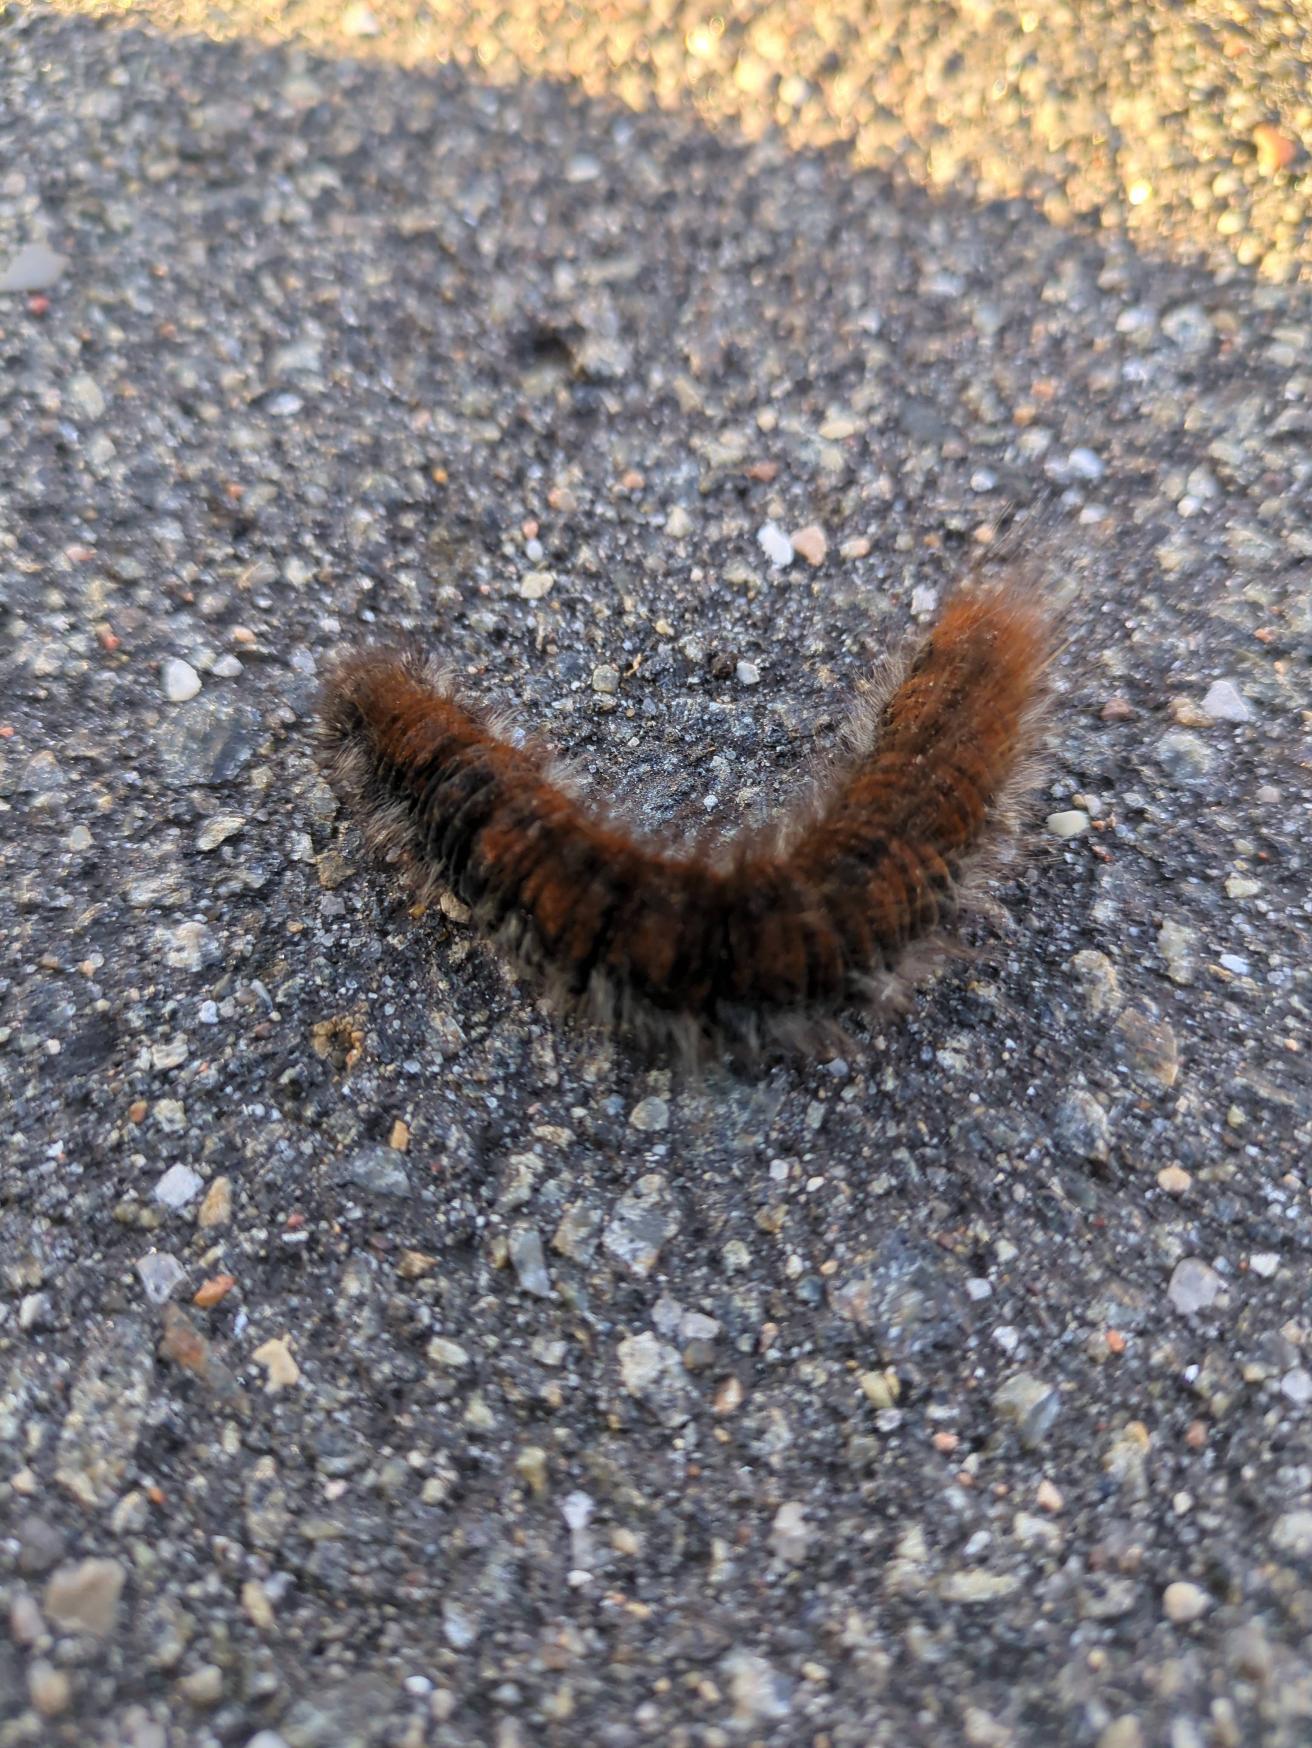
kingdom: Animalia
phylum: Arthropoda
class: Insecta
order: Lepidoptera
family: Lasiocampidae
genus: Macrothylacia
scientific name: Macrothylacia rubi
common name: Brombærspinder
